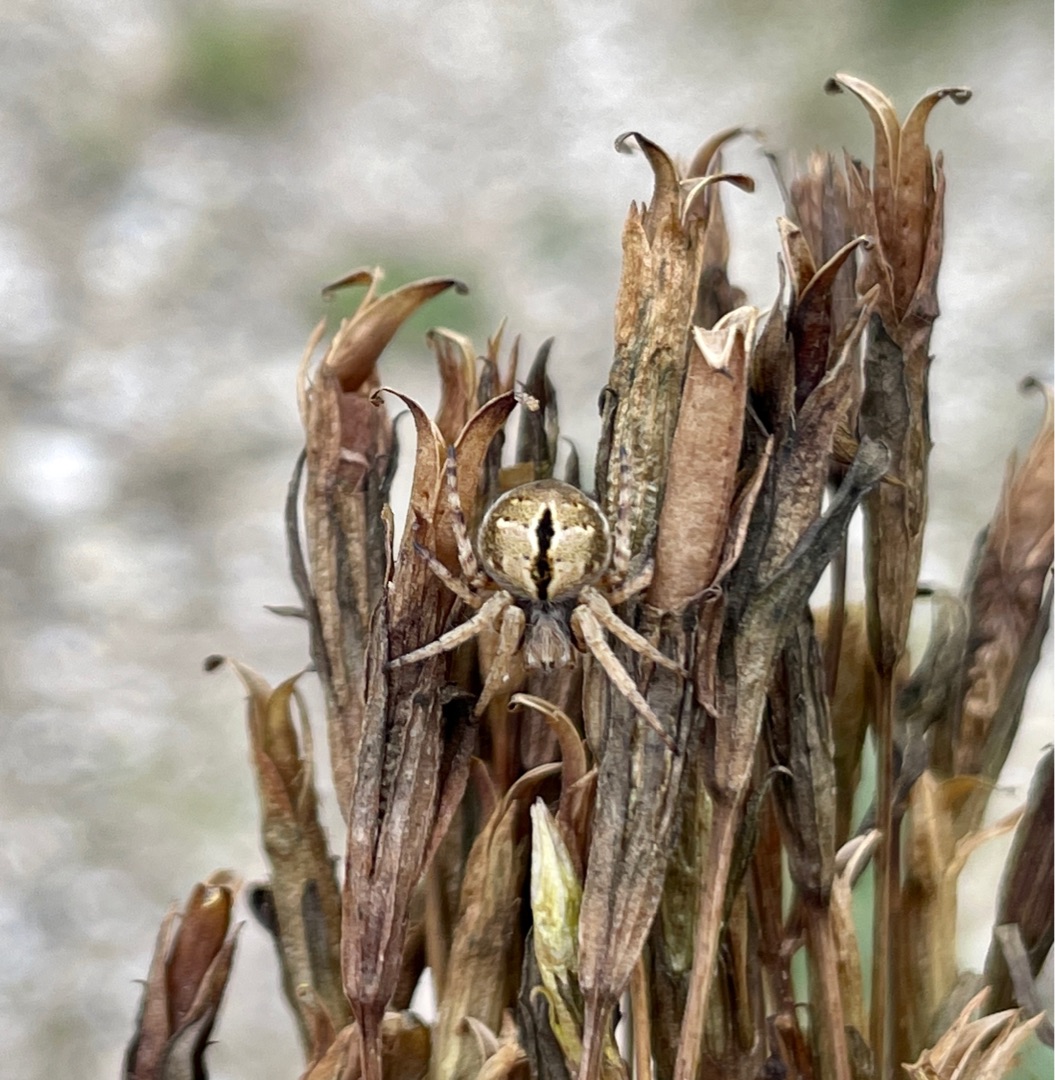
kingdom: Animalia
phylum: Arthropoda
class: Arachnida
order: Araneae
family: Araneidae
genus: Agalenatea
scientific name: Agalenatea redii
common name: Lodden hjulspinder
